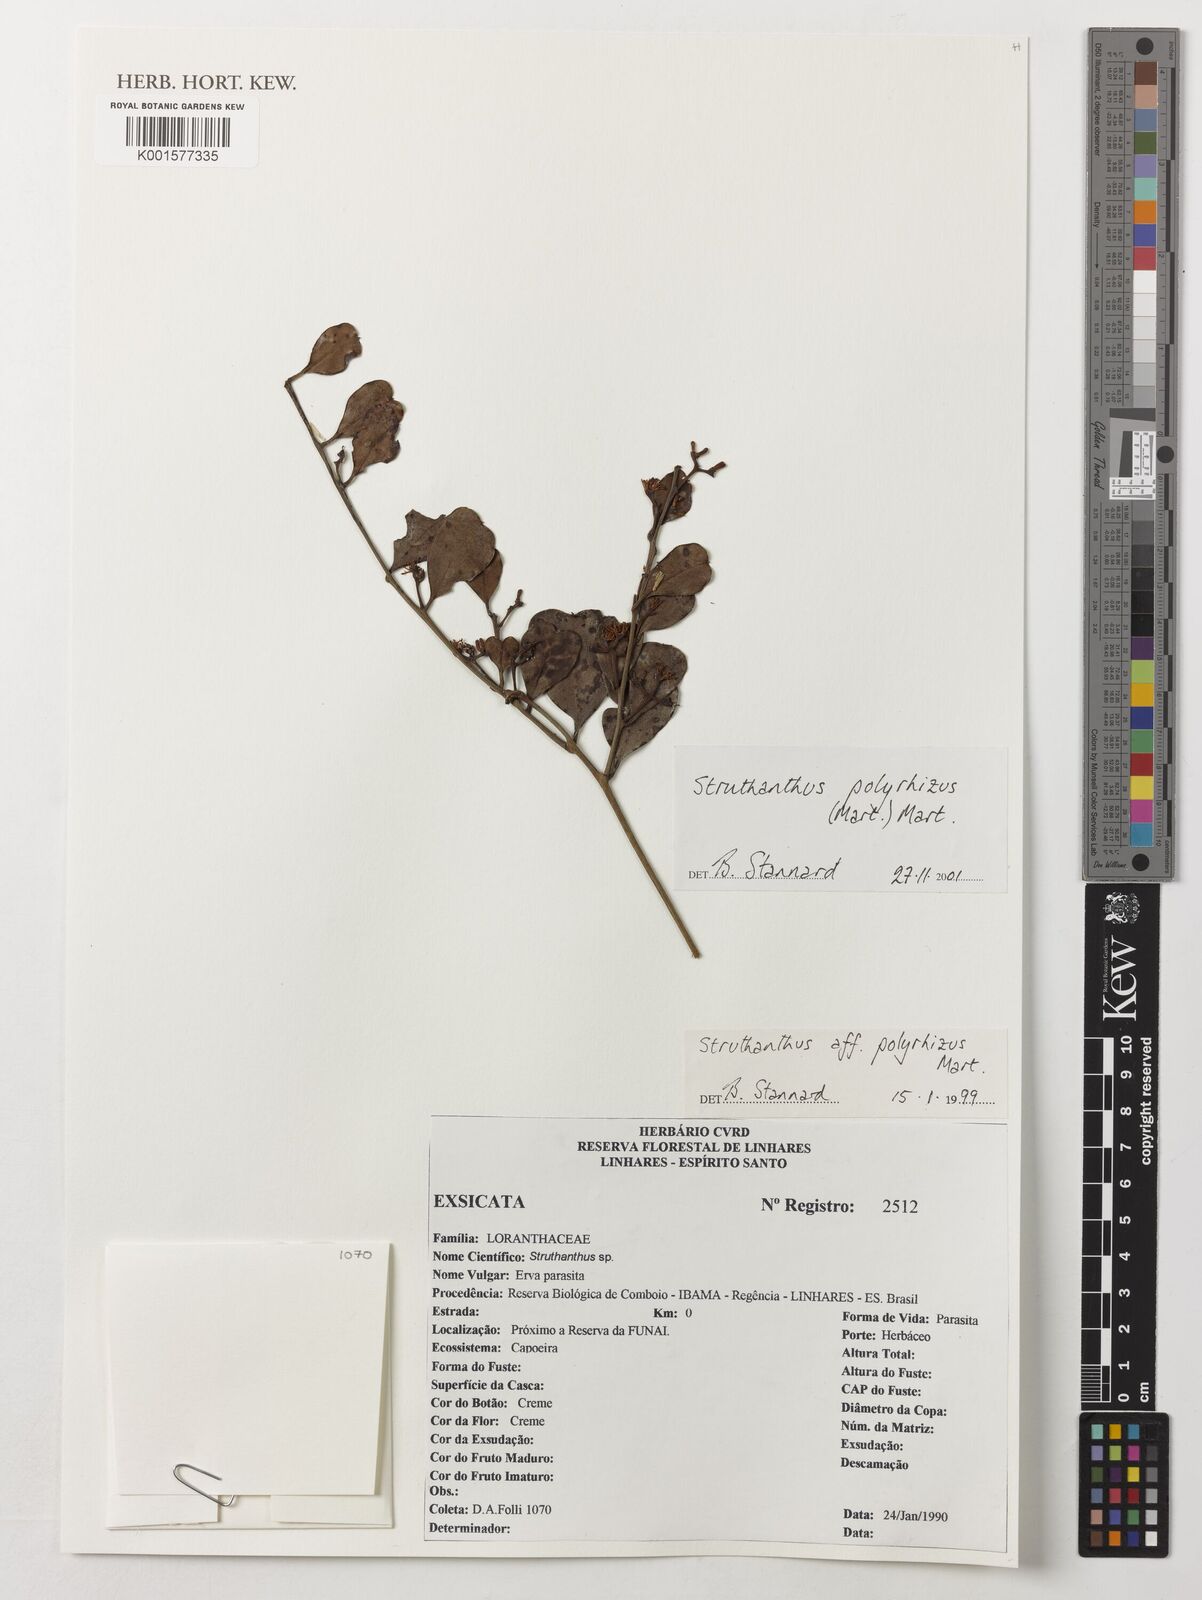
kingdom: Plantae
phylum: Tracheophyta
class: Magnoliopsida
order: Santalales
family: Loranthaceae
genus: Struthanthus
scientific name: Struthanthus retusus
